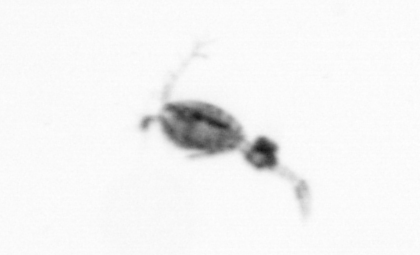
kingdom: Animalia
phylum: Arthropoda
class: Copepoda
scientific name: Copepoda
